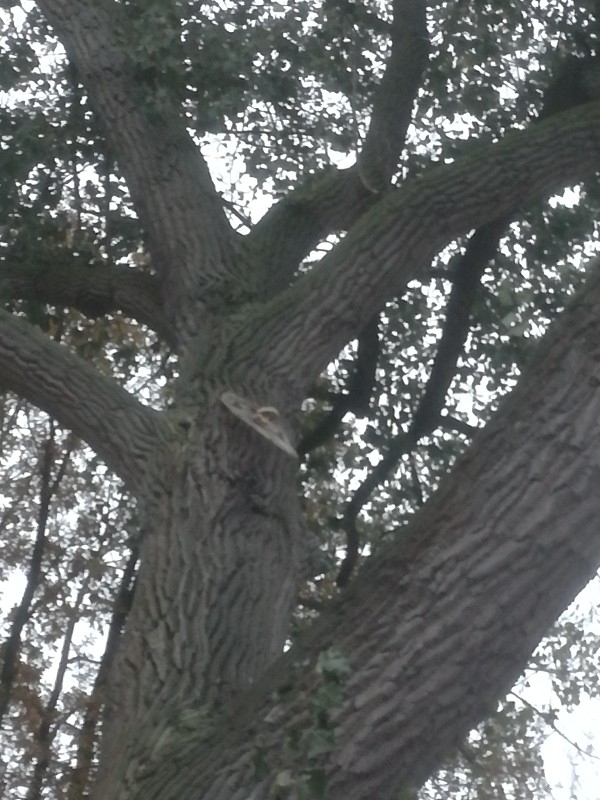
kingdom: Fungi
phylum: Basidiomycota
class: Agaricomycetes
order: Agaricales
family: Strophariaceae
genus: Pholiota
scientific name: Pholiota populnea
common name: poppel-kæmpeskælhat
